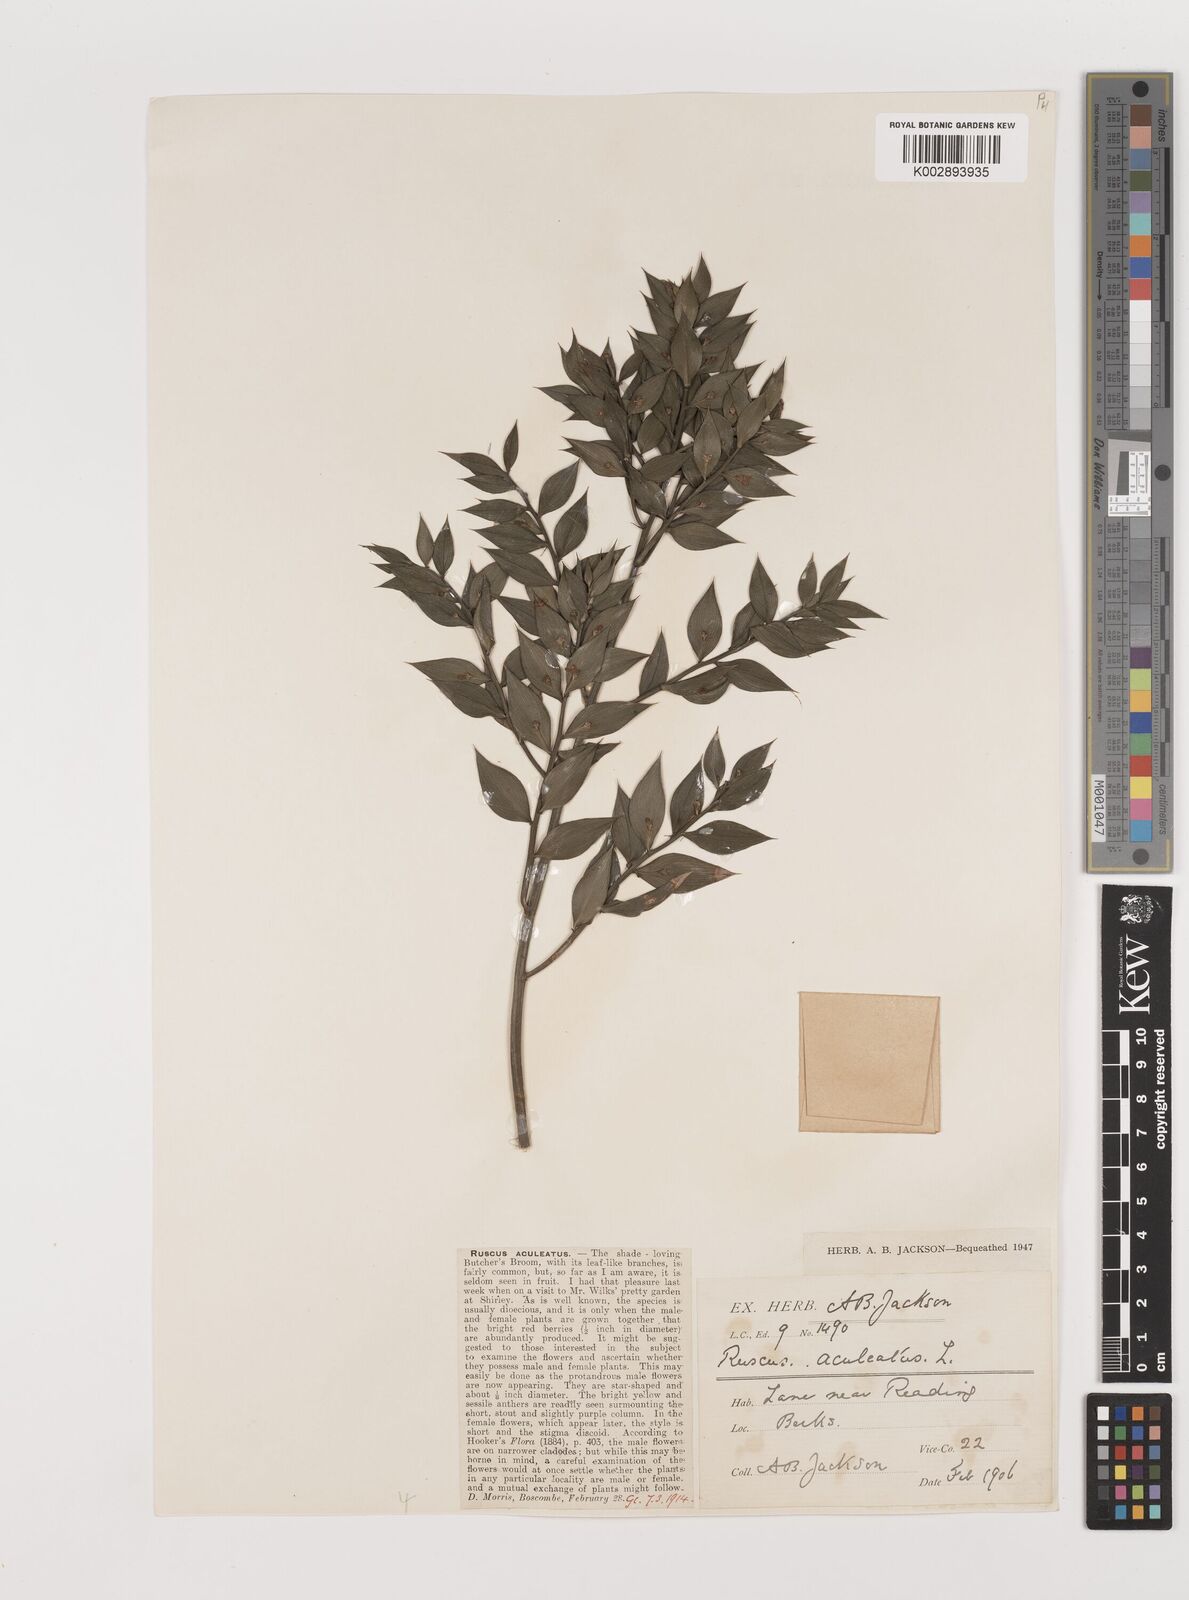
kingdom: Plantae
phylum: Tracheophyta
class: Liliopsida
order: Asparagales
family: Asparagaceae
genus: Ruscus
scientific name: Ruscus aculeatus
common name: Butcher's-broom
